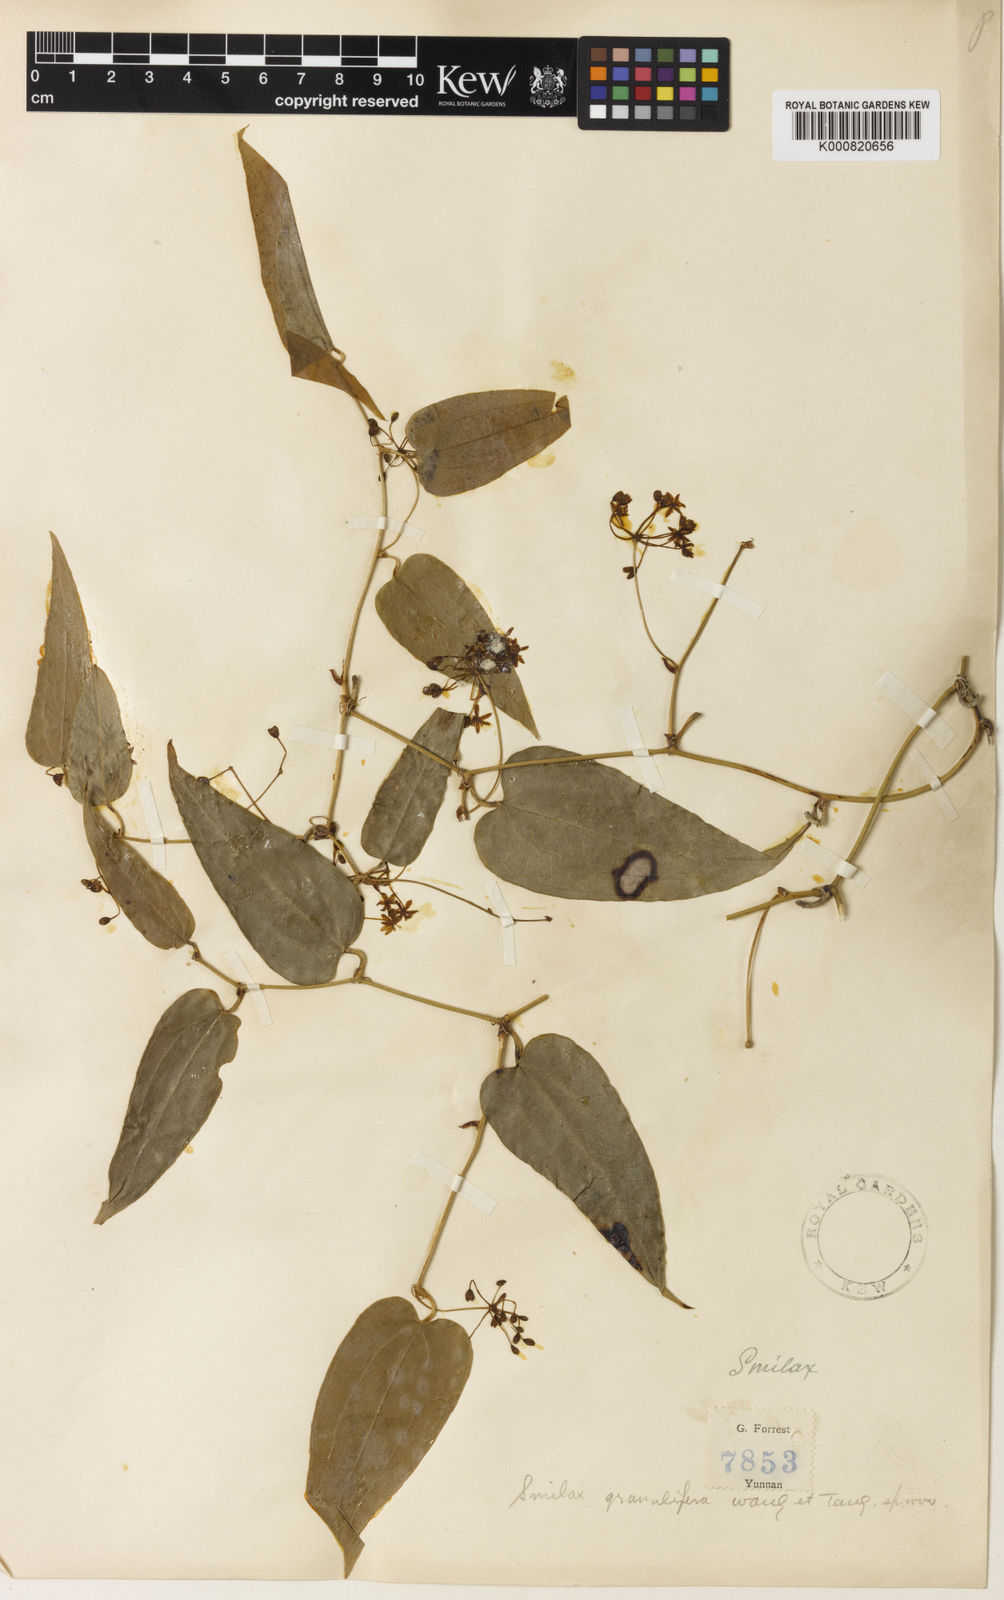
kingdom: Plantae
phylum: Tracheophyta
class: Liliopsida
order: Liliales
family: Smilacaceae
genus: Smilax
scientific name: Smilax
